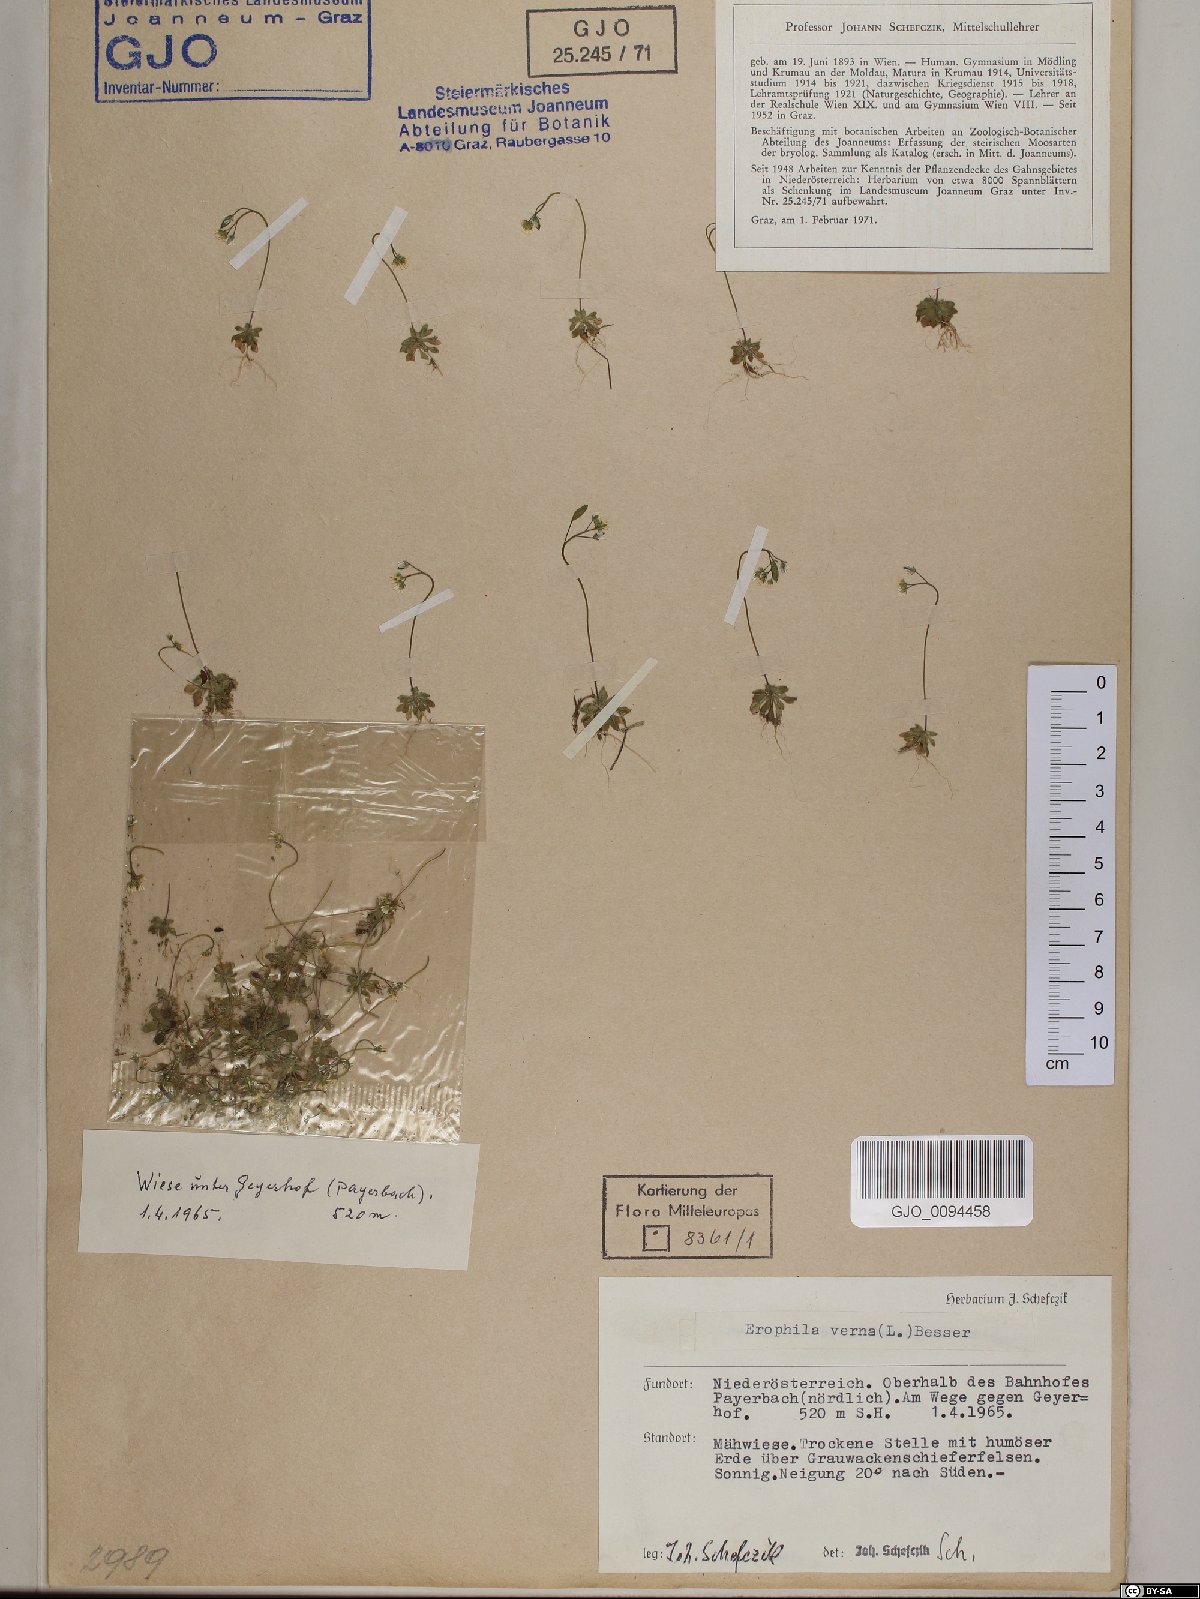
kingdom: Plantae
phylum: Tracheophyta
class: Magnoliopsida
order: Brassicales
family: Brassicaceae
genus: Draba
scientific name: Draba verna
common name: Spring draba
